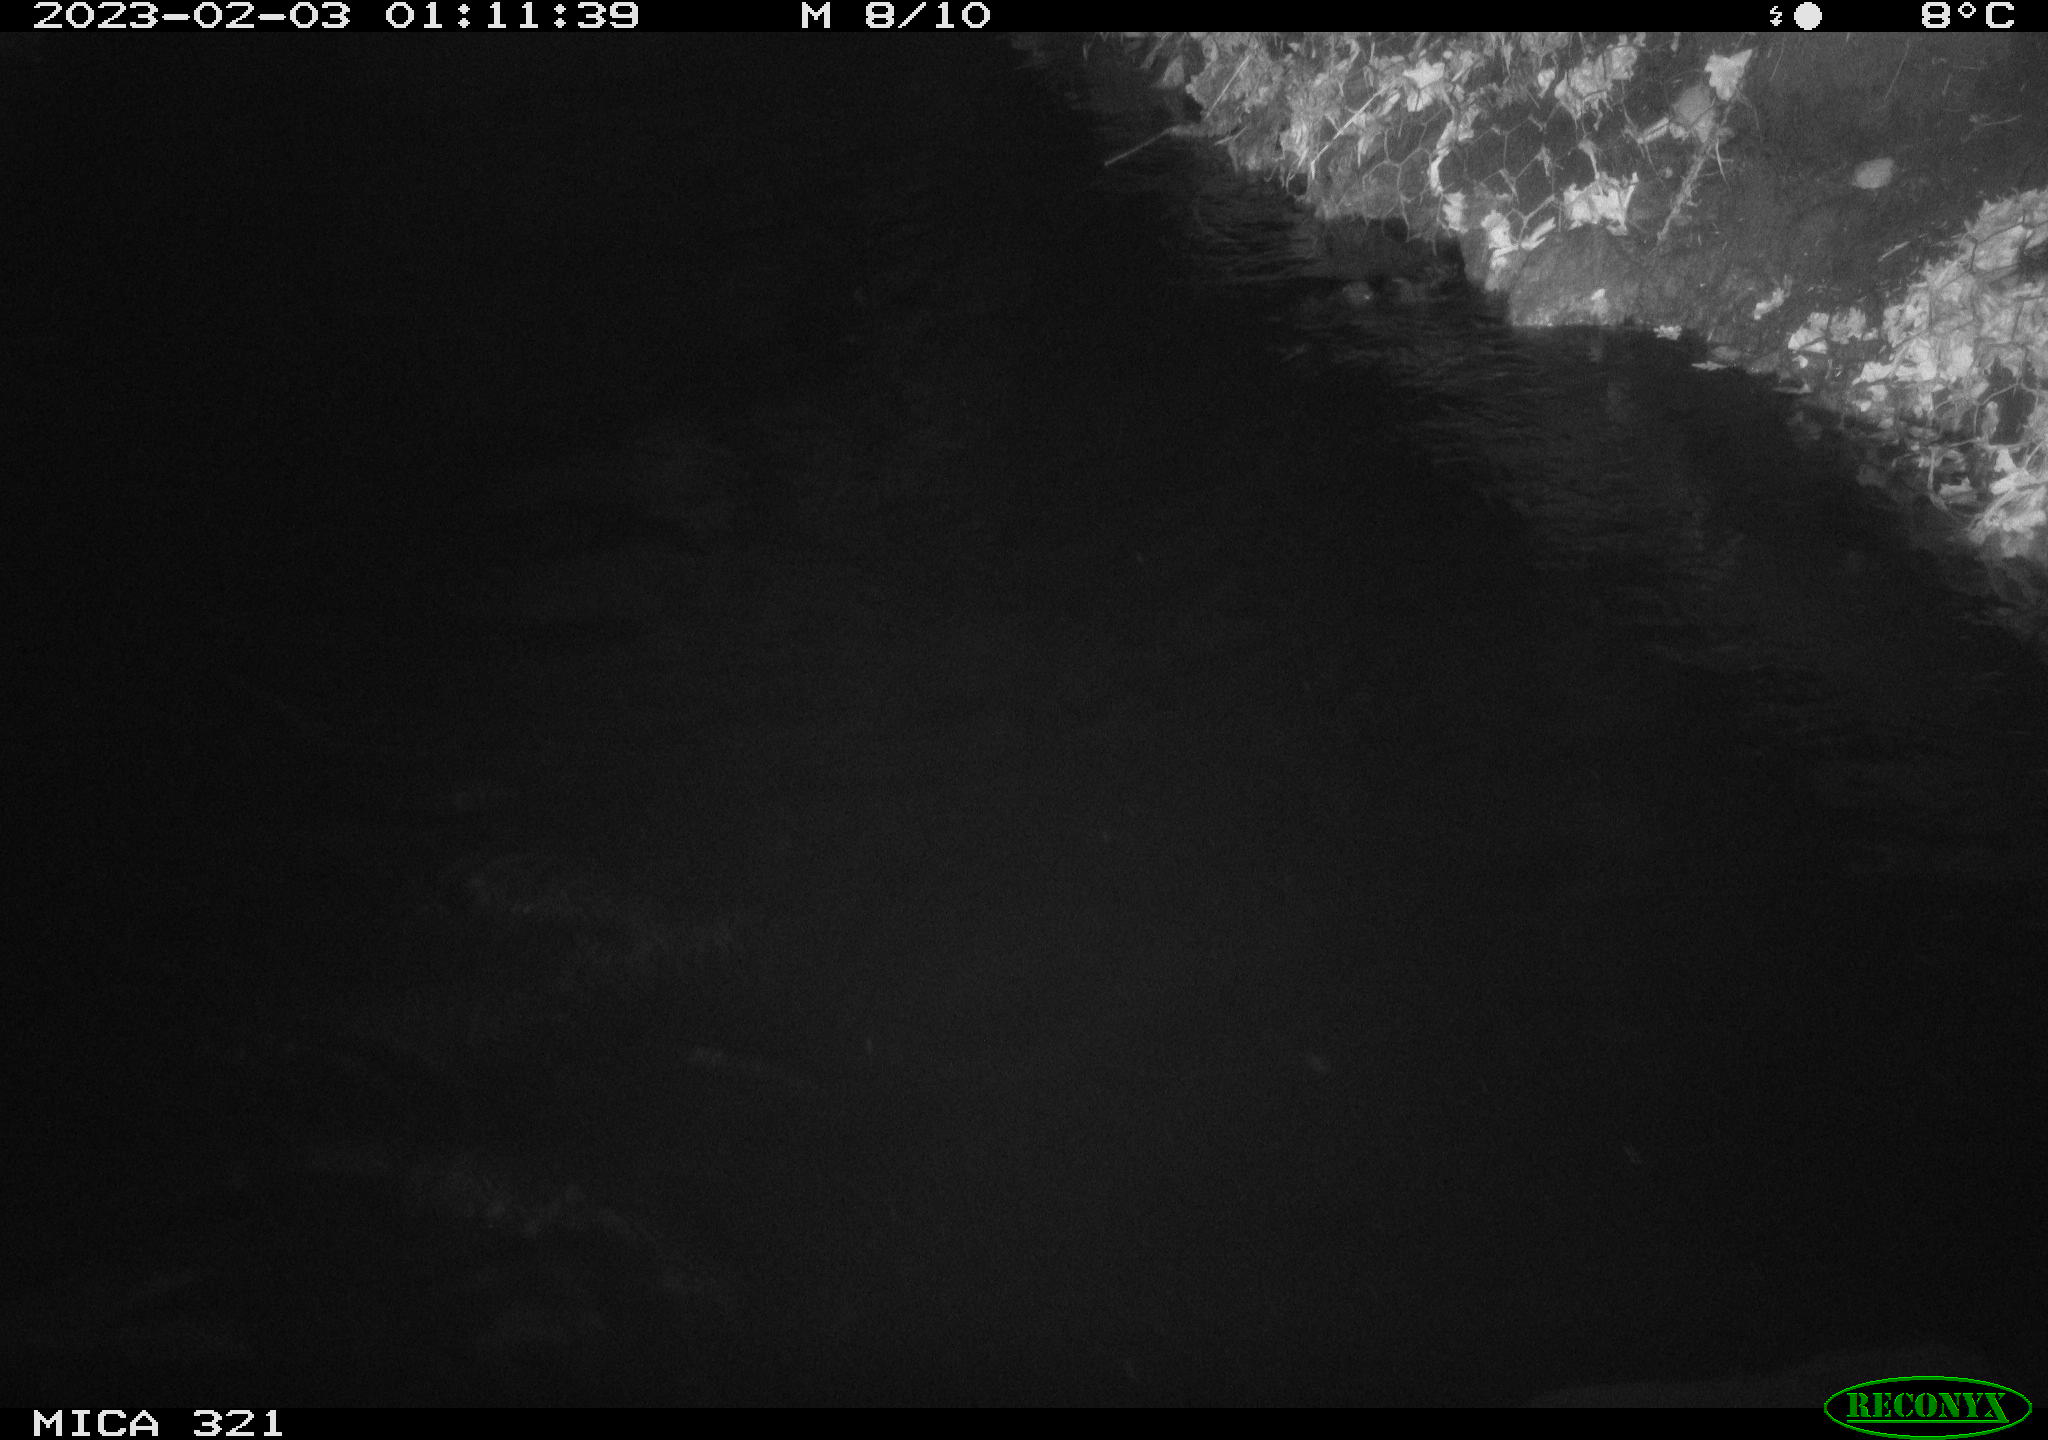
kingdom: Animalia
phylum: Chordata
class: Aves
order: Anseriformes
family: Anatidae
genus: Anas
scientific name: Anas
